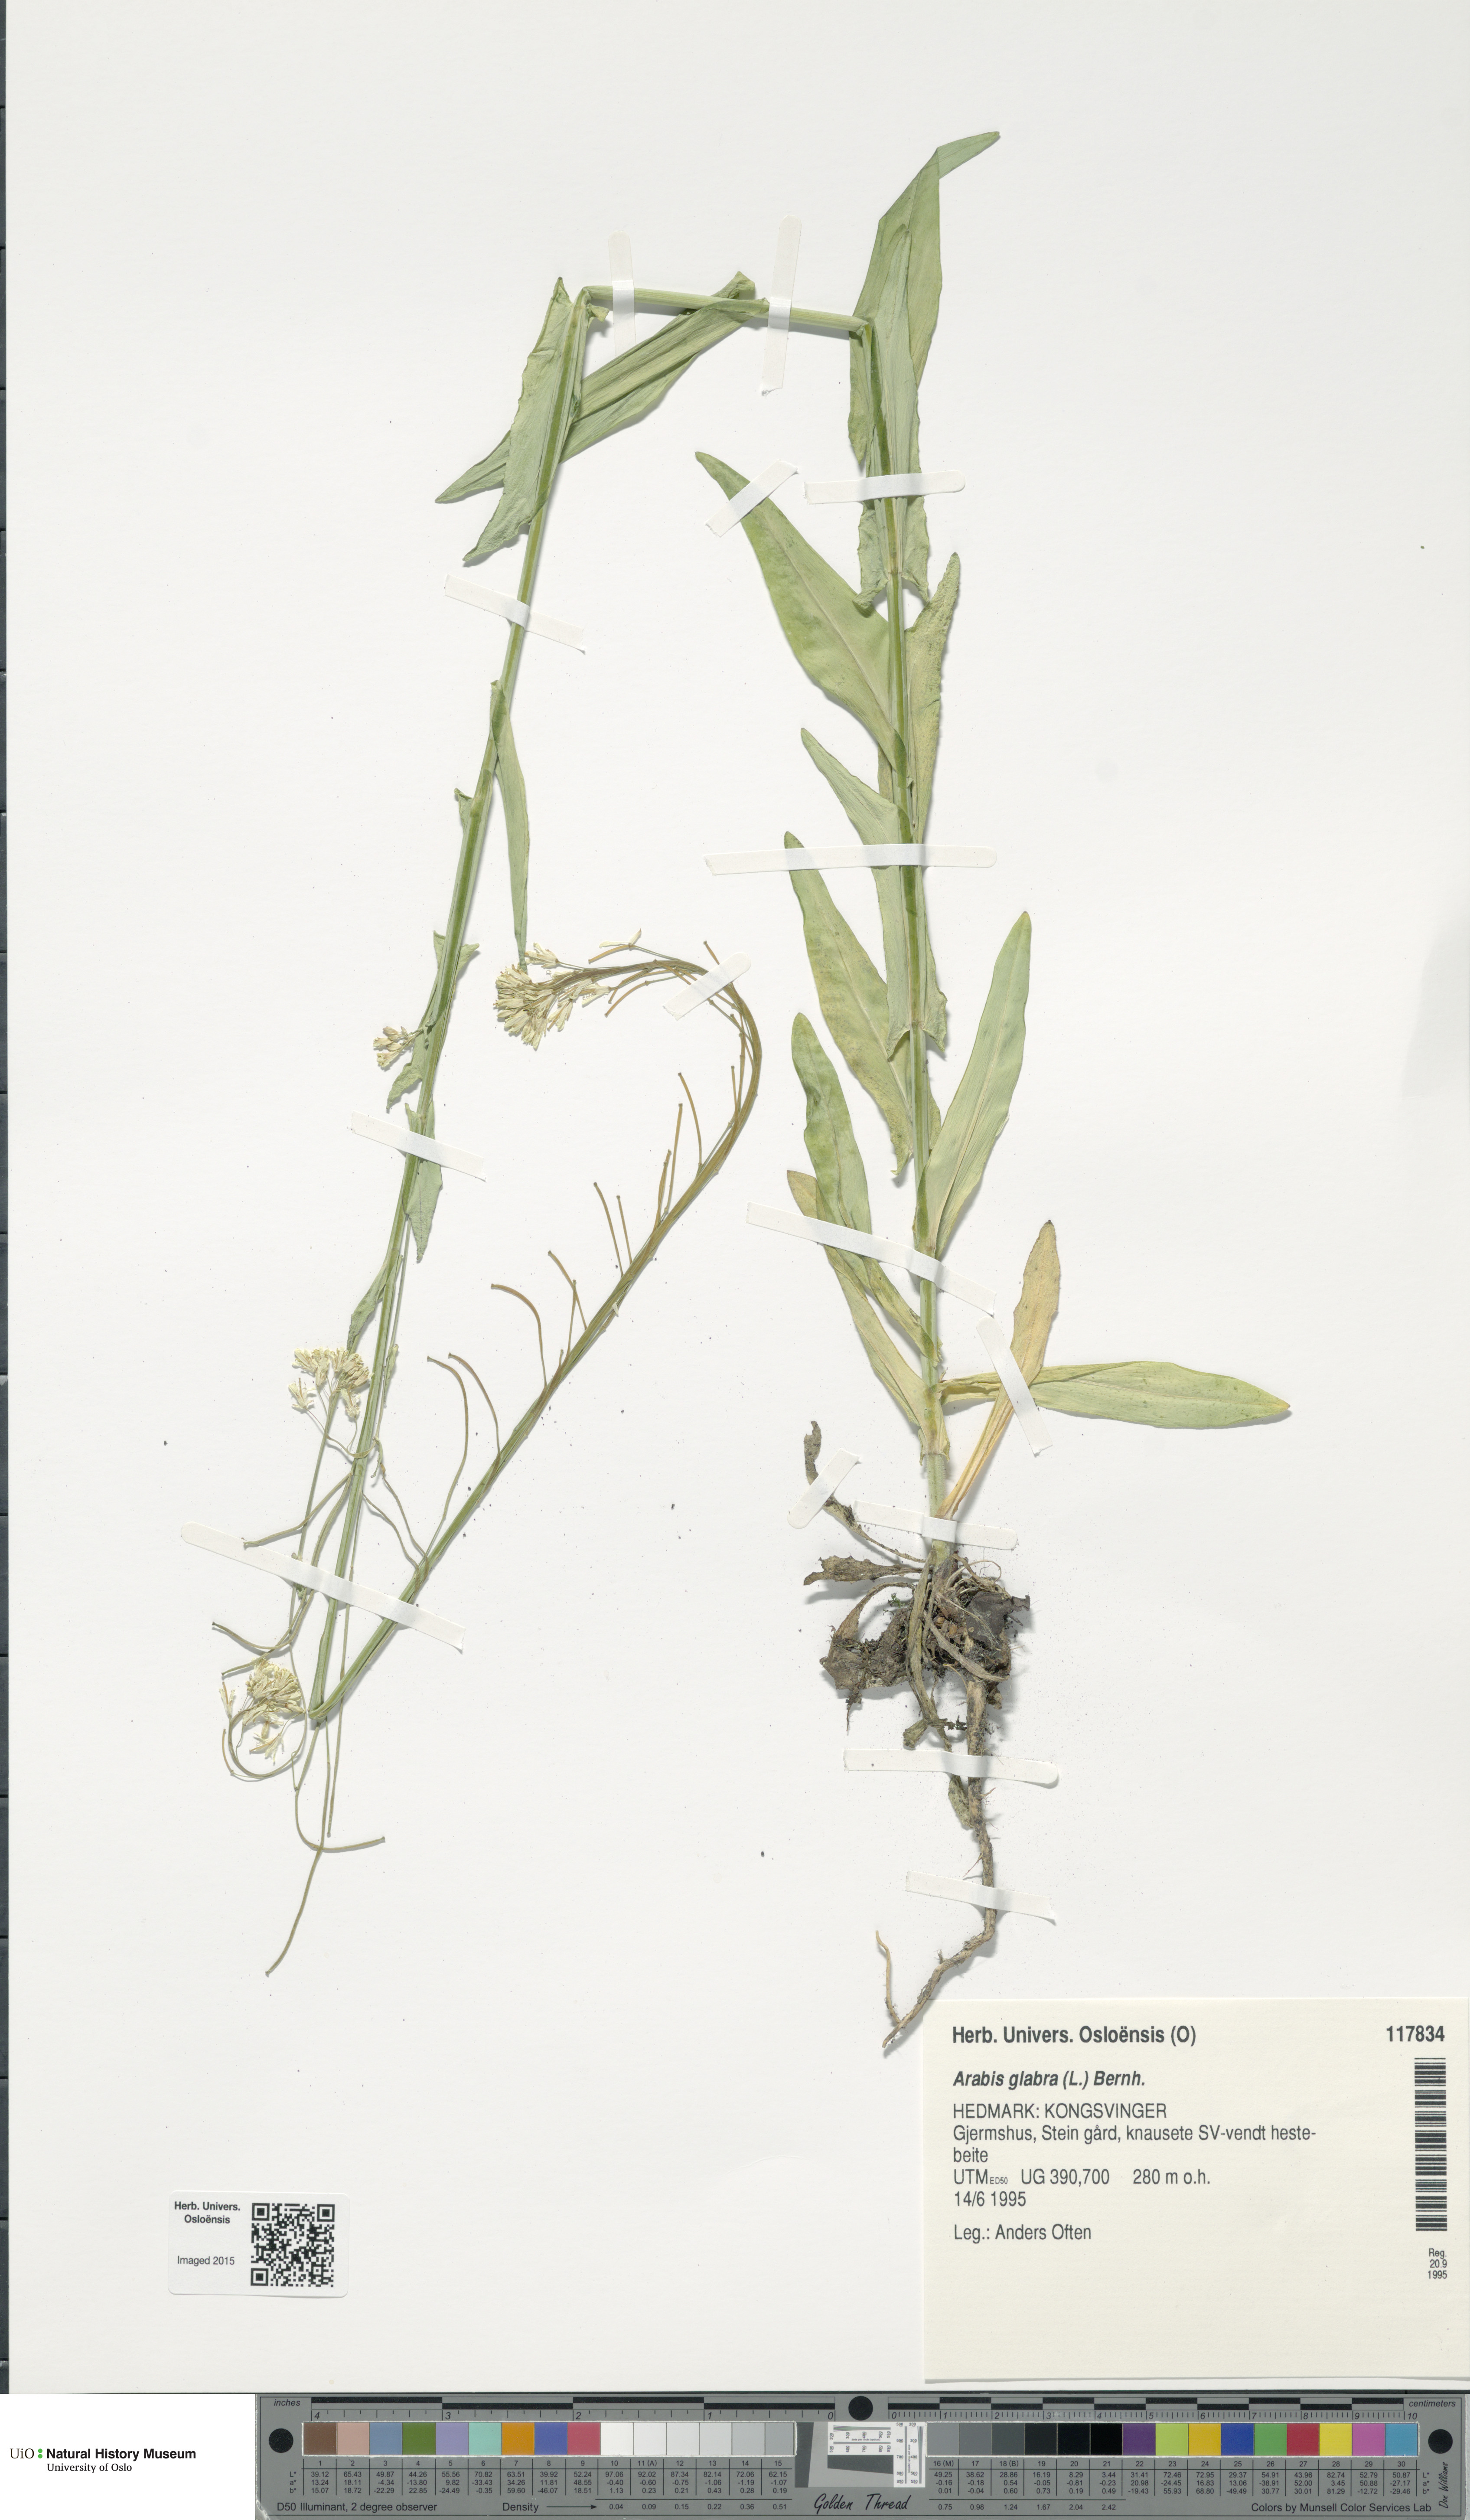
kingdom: Plantae
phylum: Tracheophyta
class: Magnoliopsida
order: Brassicales
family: Brassicaceae
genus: Turritis
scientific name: Turritis glabra
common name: Tower rockcress
